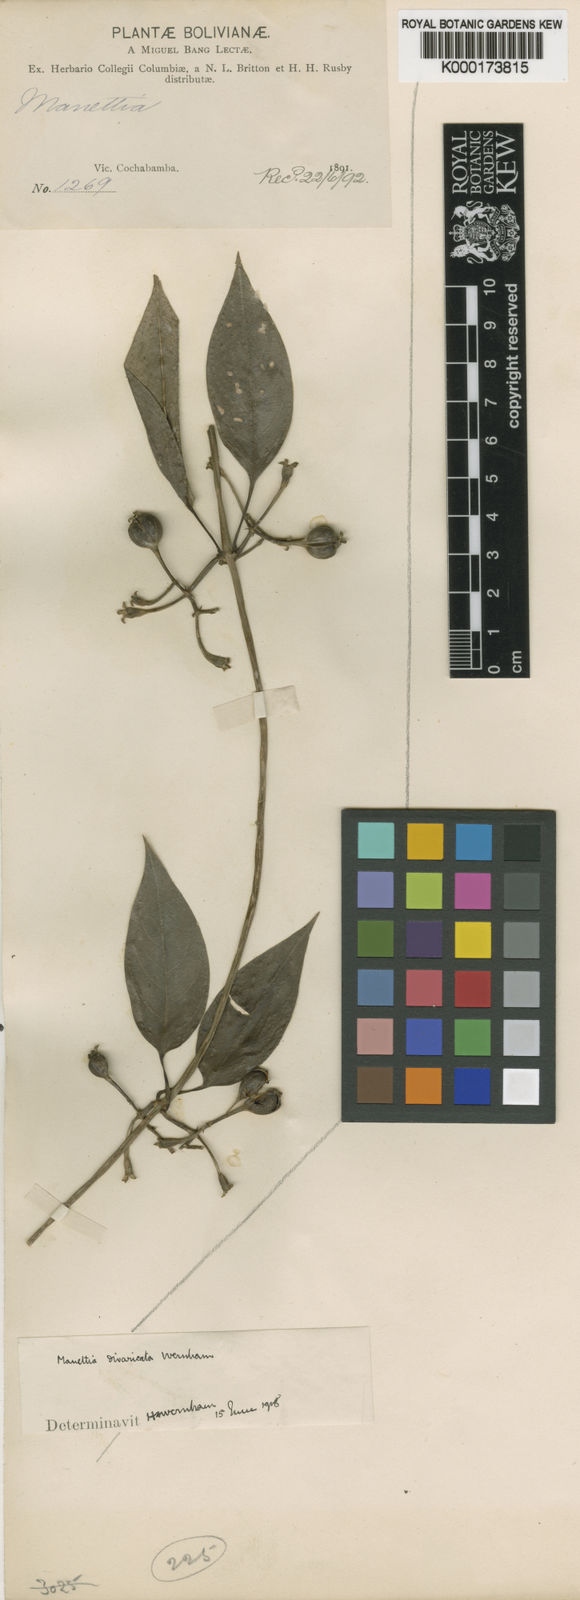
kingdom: Plantae
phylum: Tracheophyta
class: Magnoliopsida
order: Gentianales
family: Rubiaceae
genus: Manettia
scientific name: Manettia divaricata
